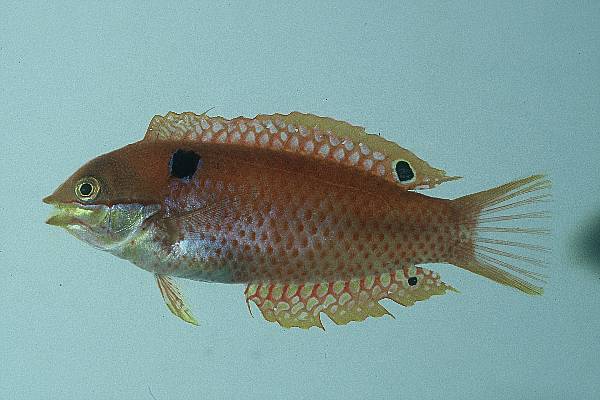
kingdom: Animalia
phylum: Chordata
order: Perciformes
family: Labridae
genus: Macropharyngodon
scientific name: Macropharyngodon vivienae
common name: Madagascar wrasse
